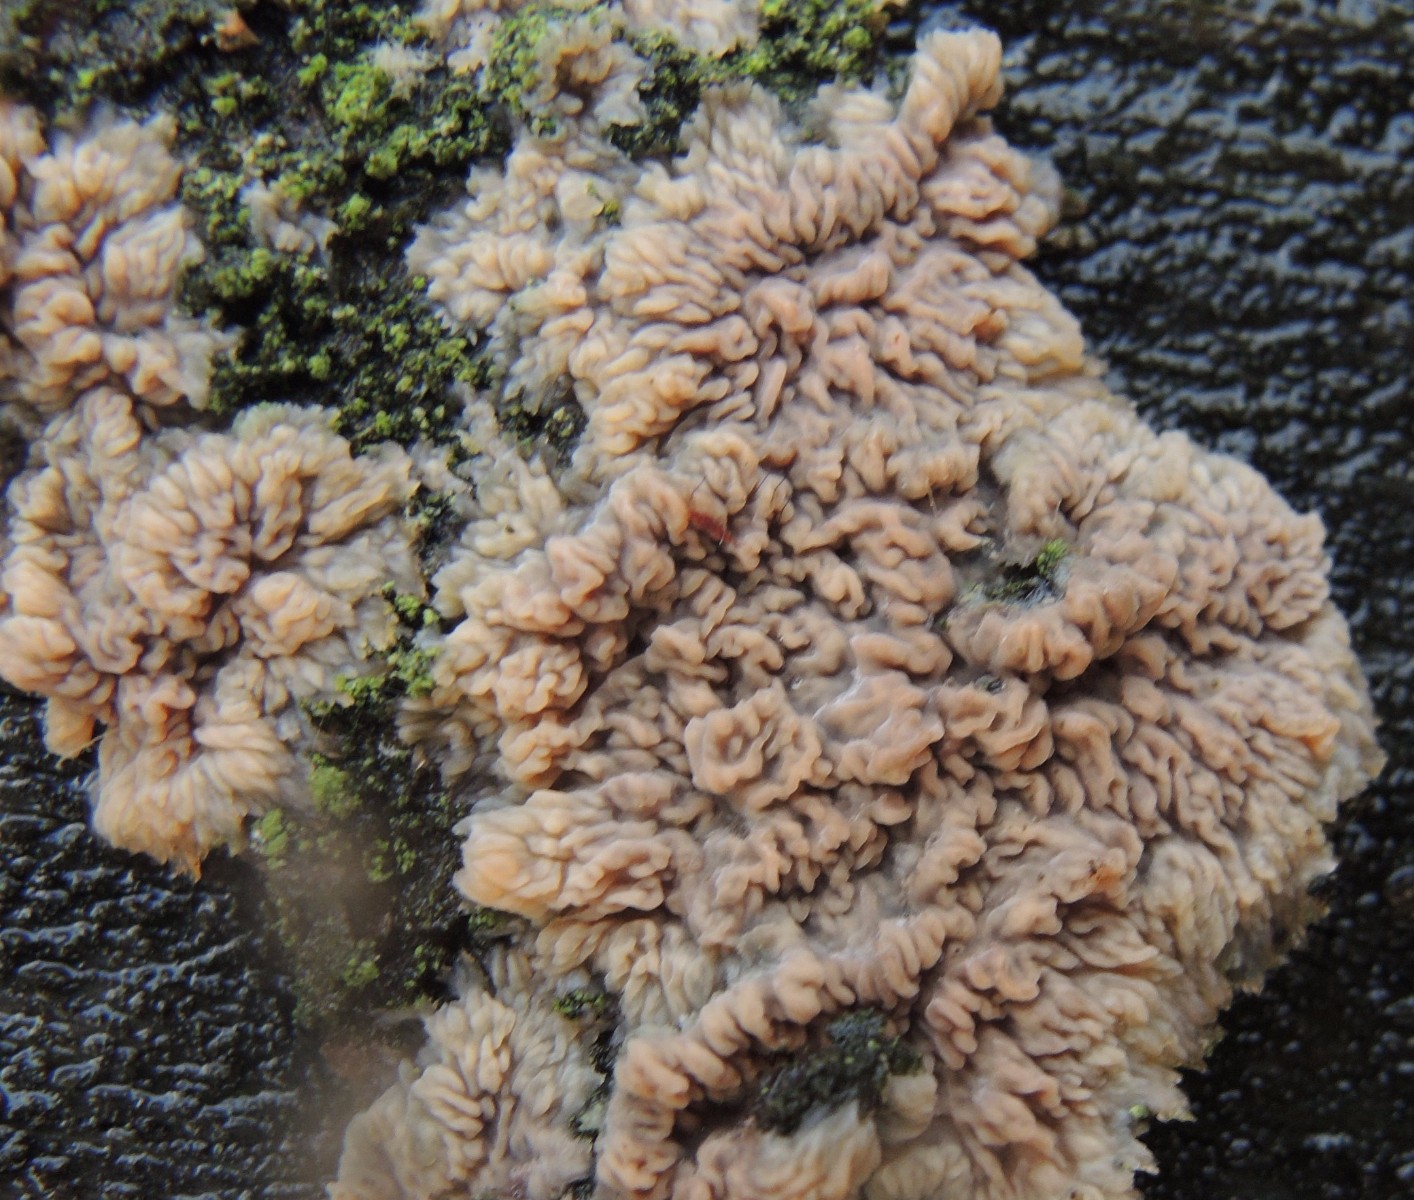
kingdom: Fungi
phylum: Basidiomycota
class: Agaricomycetes
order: Polyporales
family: Meruliaceae
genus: Phlebia
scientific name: Phlebia radiata
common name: stråle-åresvamp
